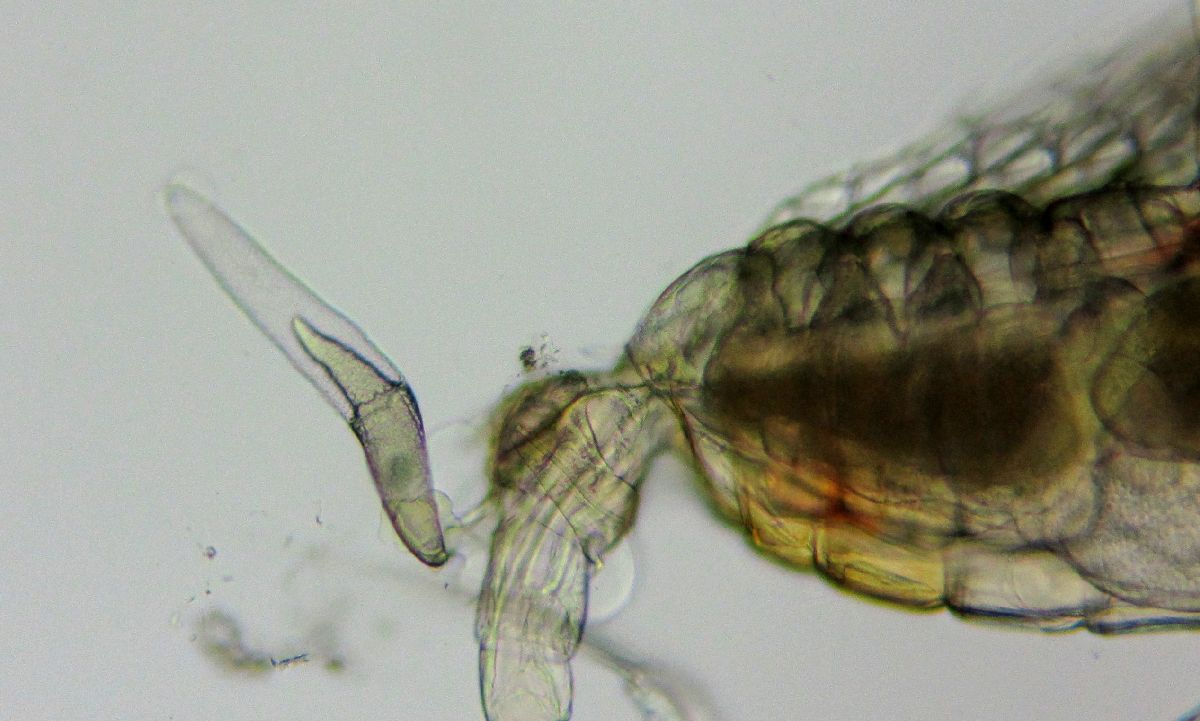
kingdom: Animalia
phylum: Arthropoda
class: Copepoda
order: Calanoida
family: Centropagidae
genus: Centropages
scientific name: Centropages hamatus
